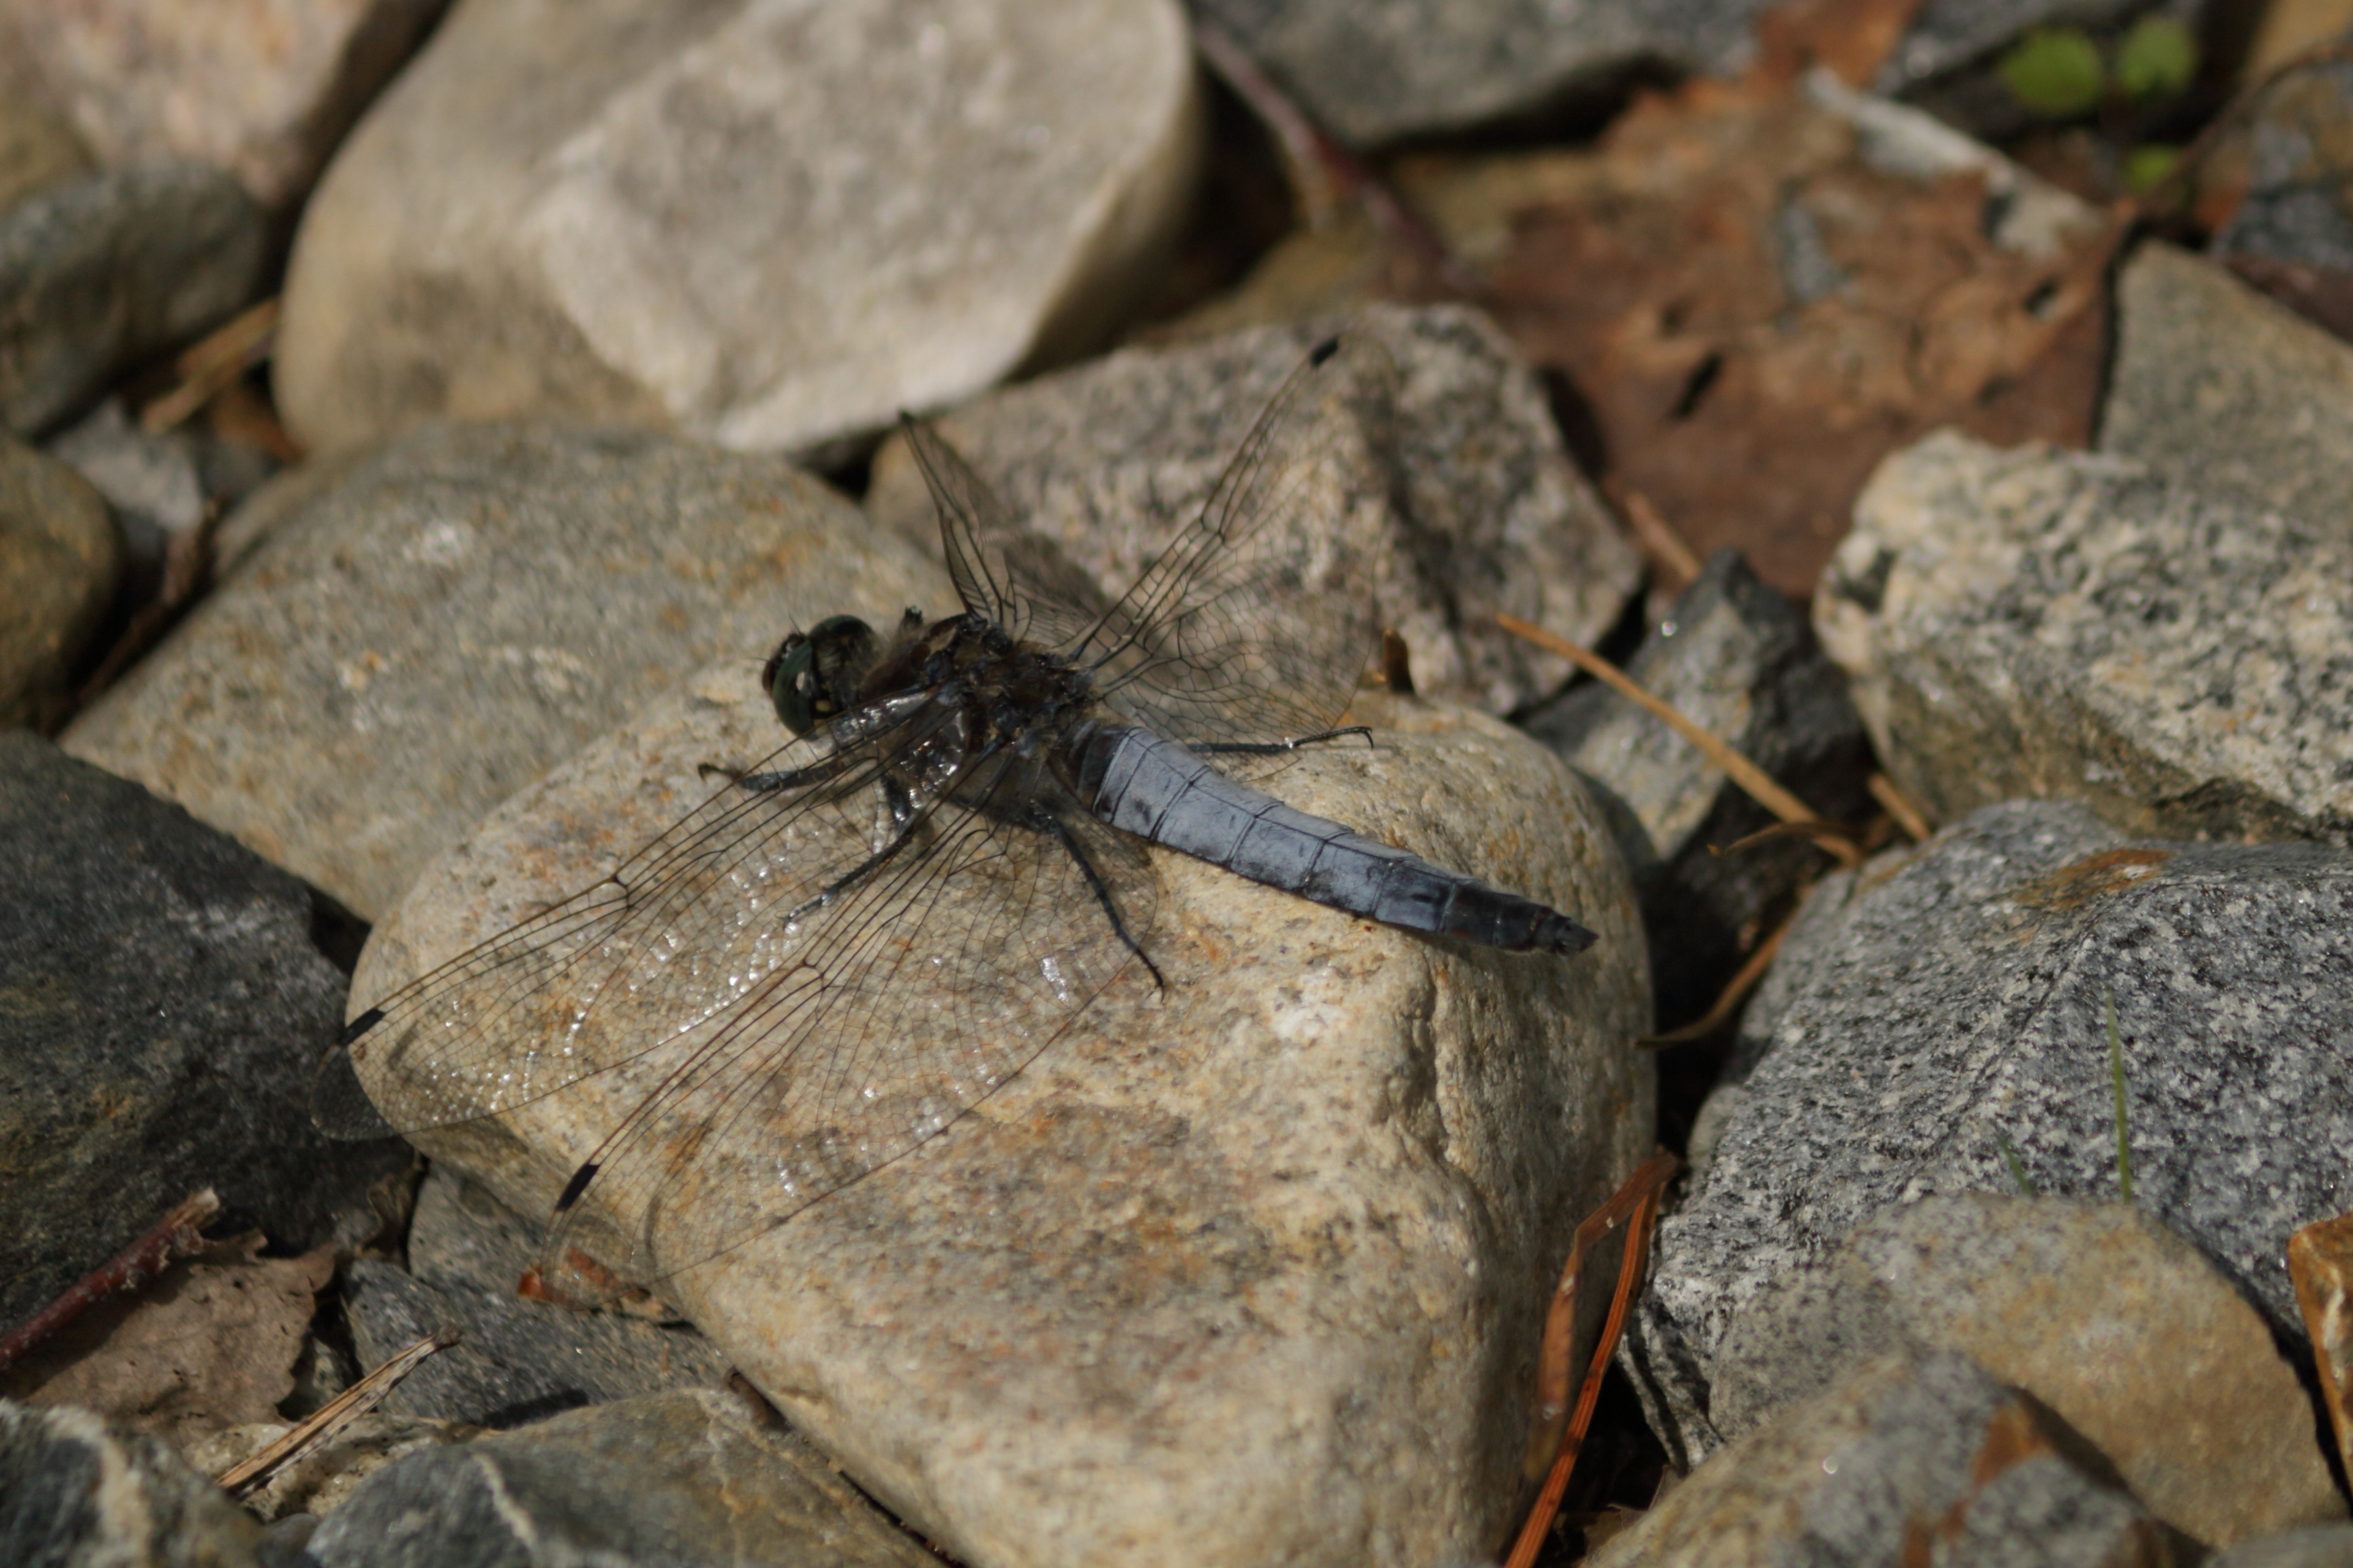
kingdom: Animalia
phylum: Arthropoda
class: Insecta
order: Odonata
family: Libellulidae
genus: Orthetrum
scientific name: Orthetrum cancellatum
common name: Black-tailed skimmer
